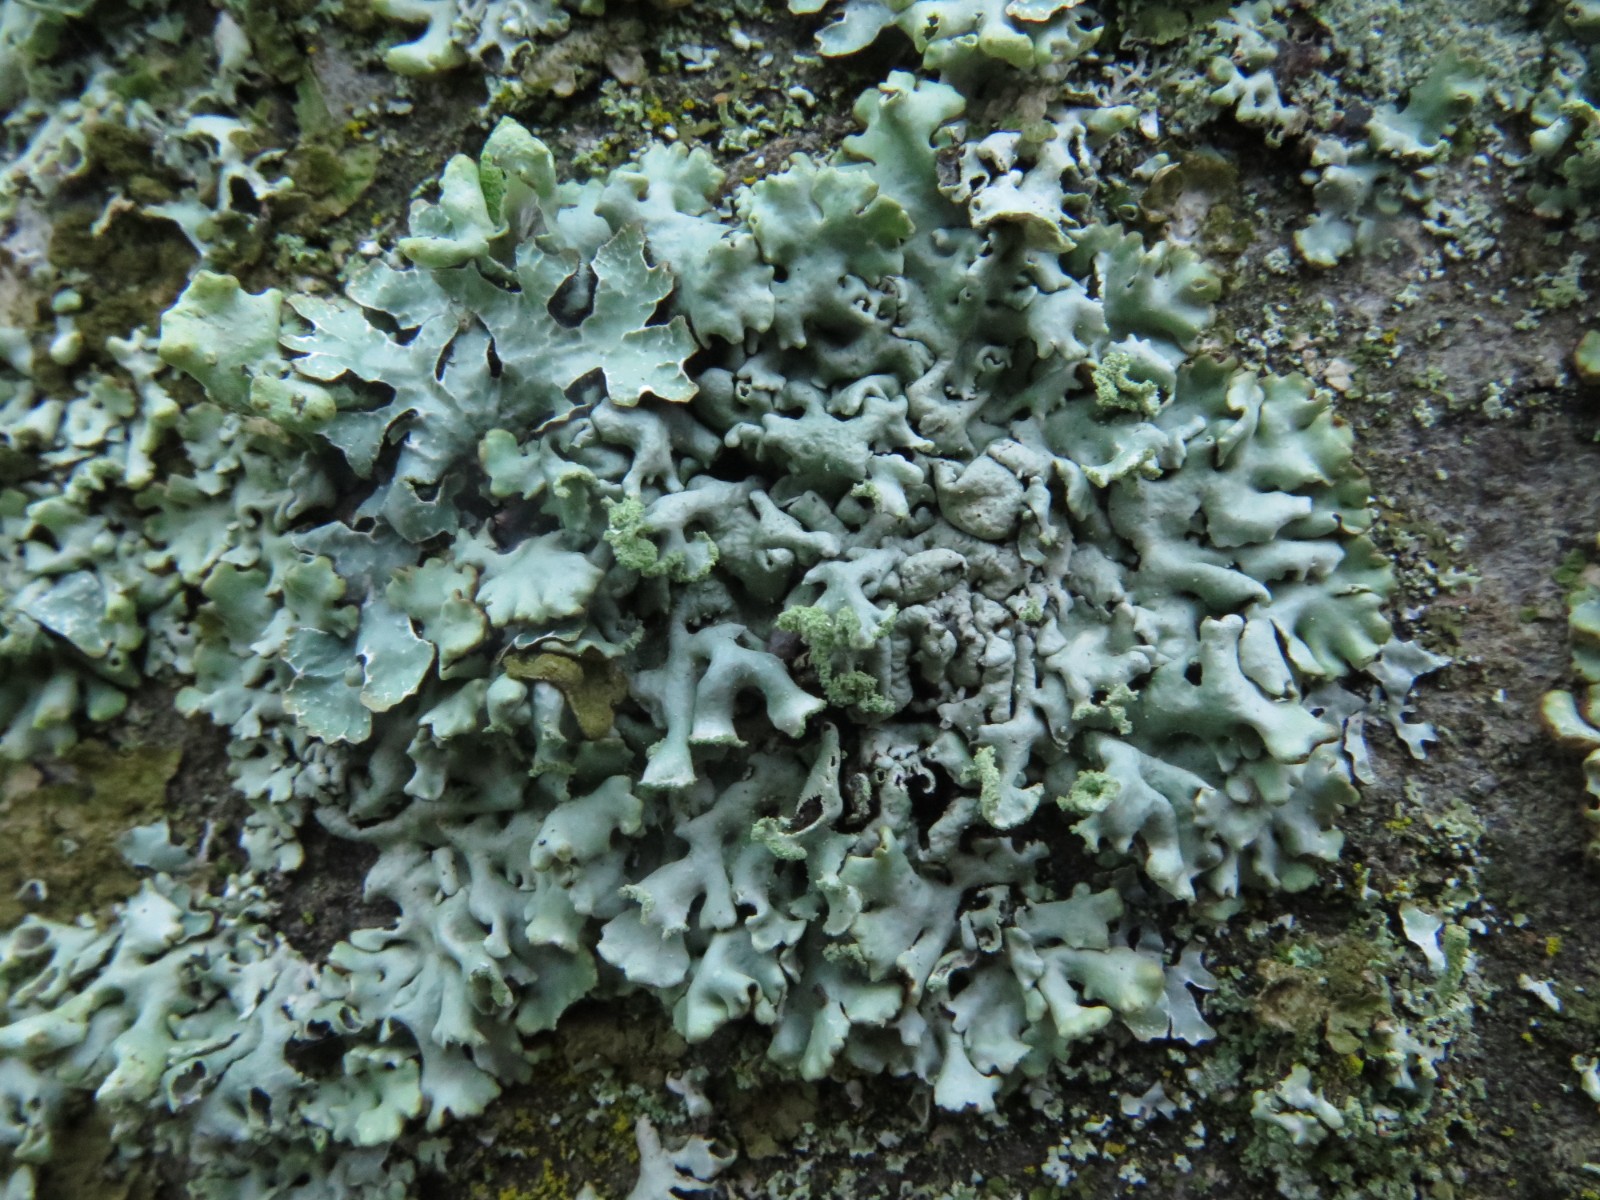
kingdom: Fungi
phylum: Ascomycota
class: Lecanoromycetes
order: Lecanorales
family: Parmeliaceae
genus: Hypogymnia
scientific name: Hypogymnia physodes
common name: almindelig kvistlav
